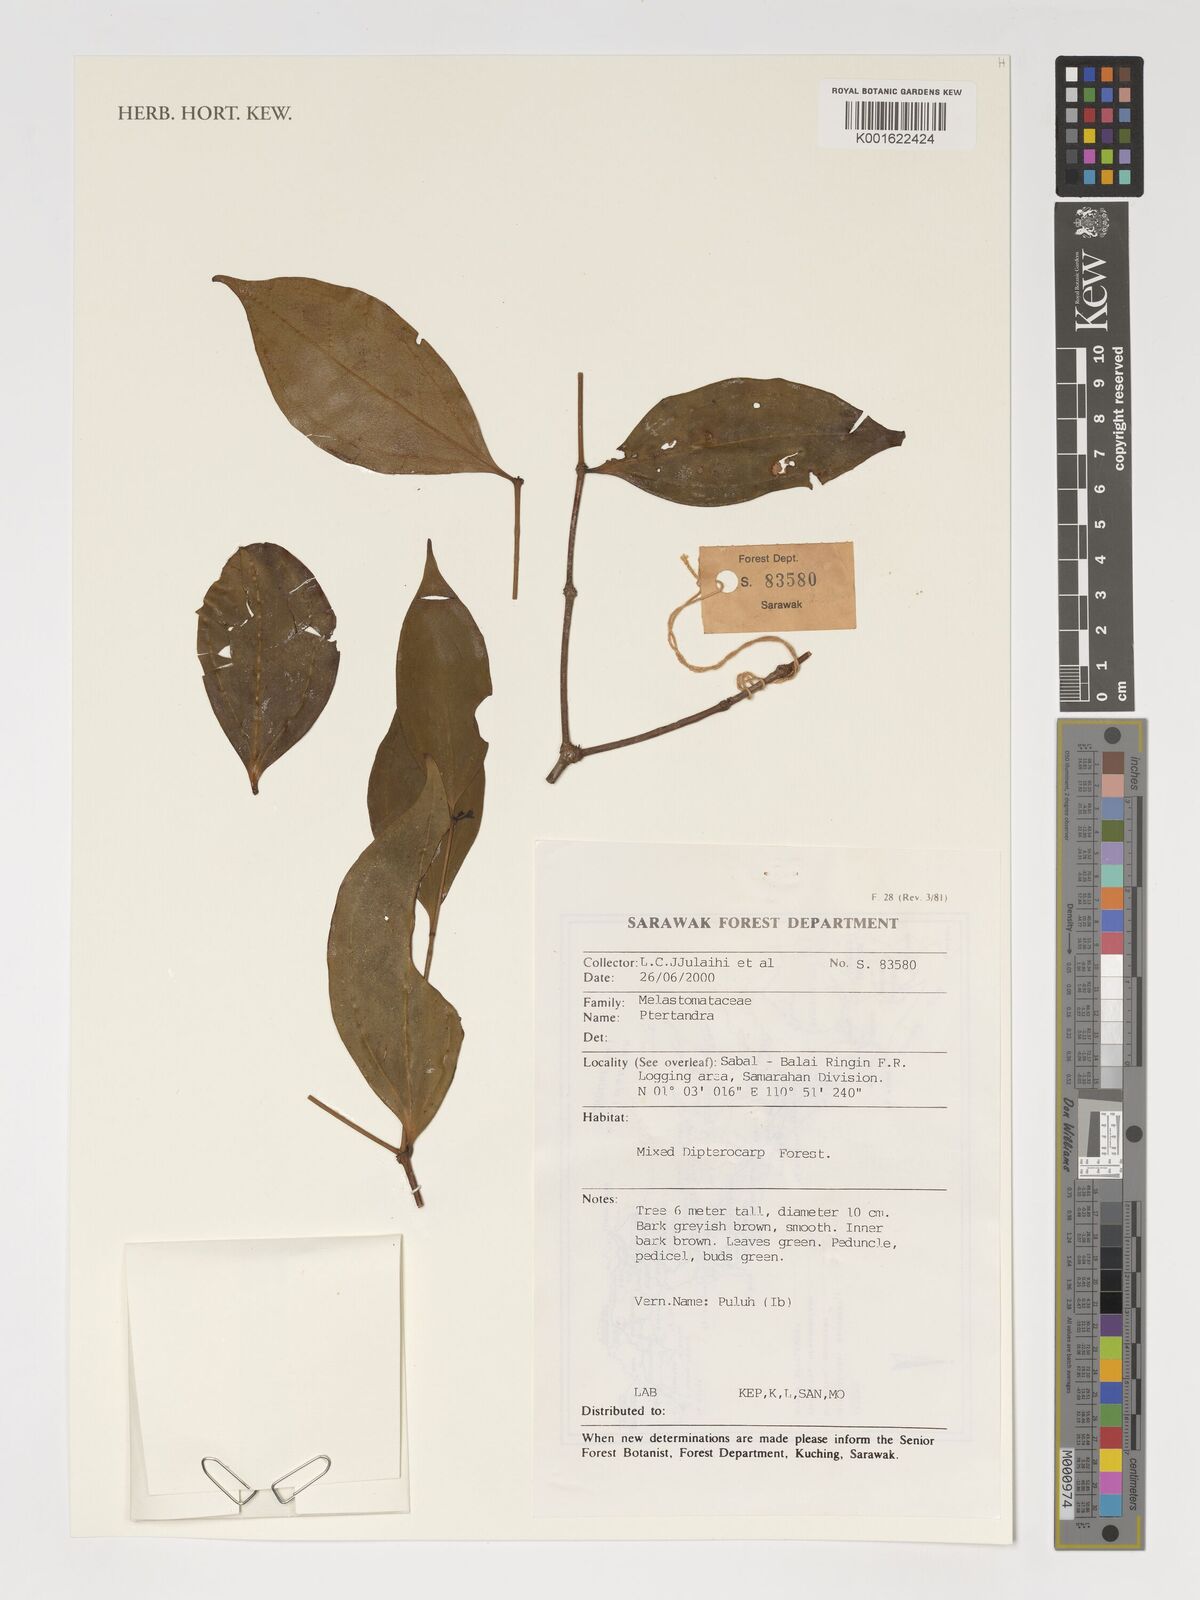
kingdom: Plantae
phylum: Tracheophyta
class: Magnoliopsida
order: Myrtales
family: Melastomataceae
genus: Pternandra
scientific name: Pternandra
